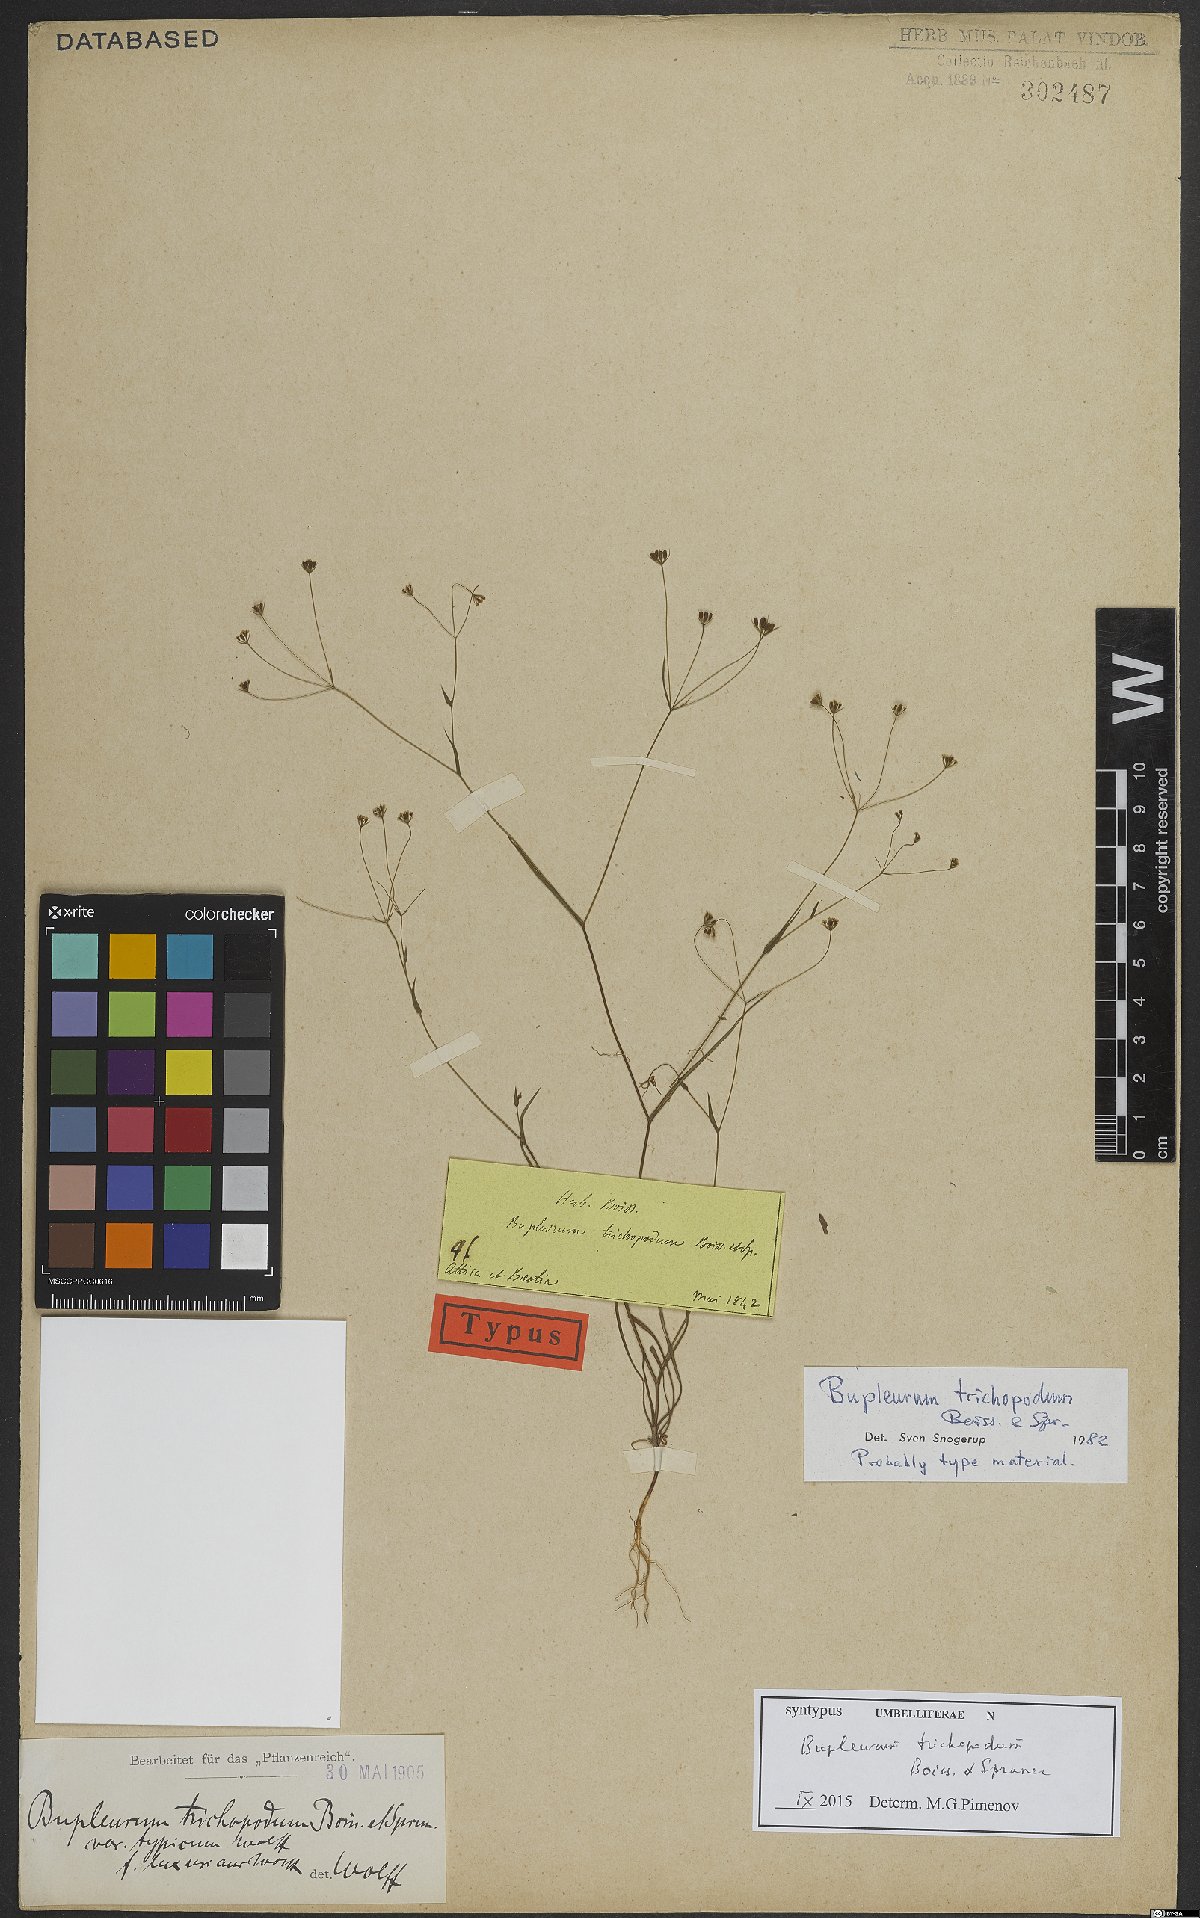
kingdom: Plantae
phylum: Tracheophyta
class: Magnoliopsida
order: Apiales
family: Apiaceae
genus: Bupleurum
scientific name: Bupleurum trichopodum
